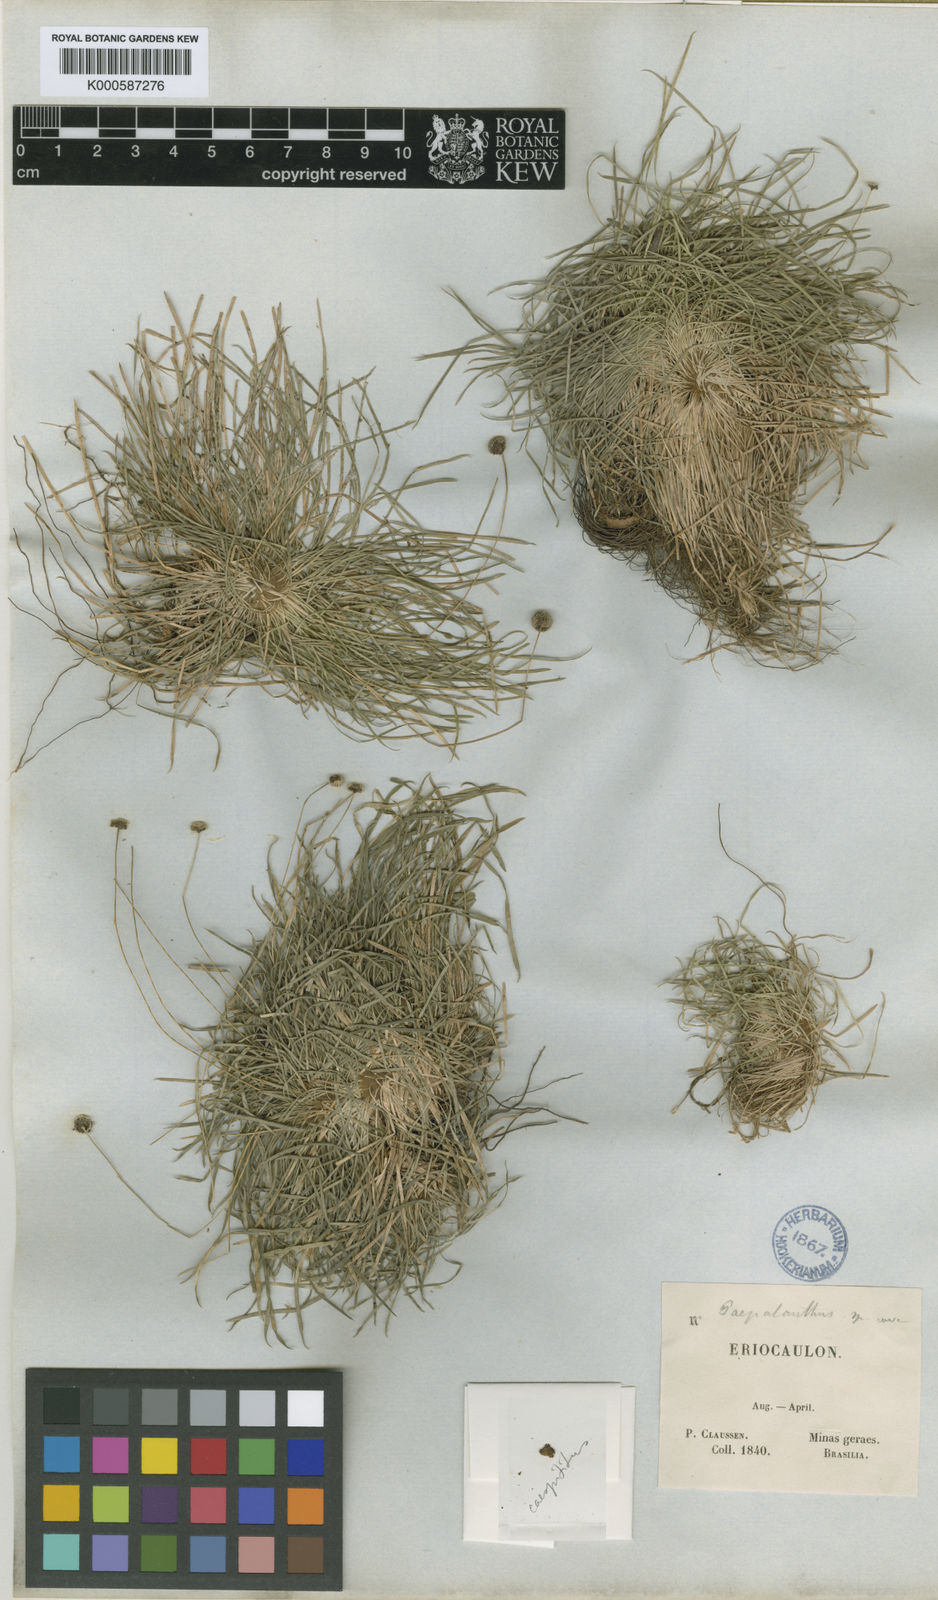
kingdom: Plantae
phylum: Tracheophyta
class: Liliopsida
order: Poales
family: Eriocaulaceae
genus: Paepalanthus
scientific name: Paepalanthus
